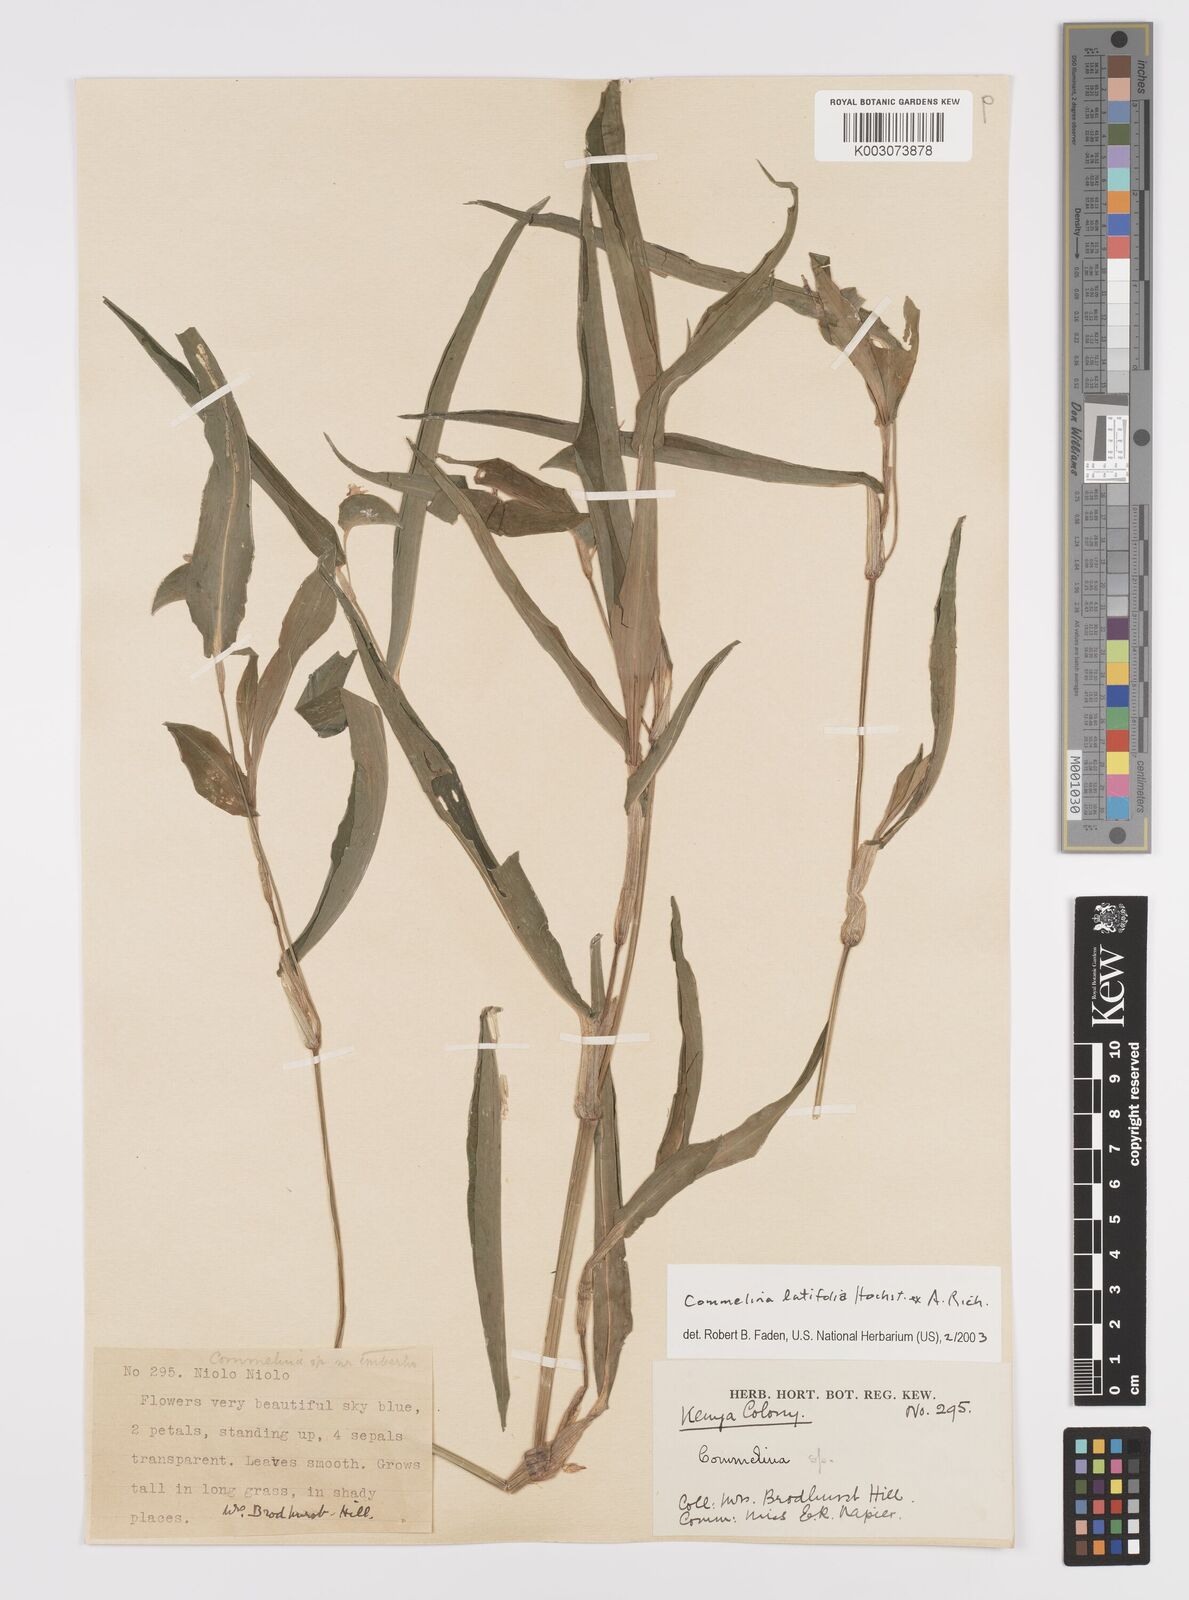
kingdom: Plantae
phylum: Tracheophyta
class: Liliopsida
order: Commelinales
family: Commelinaceae
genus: Commelina
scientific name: Commelina latifolia
